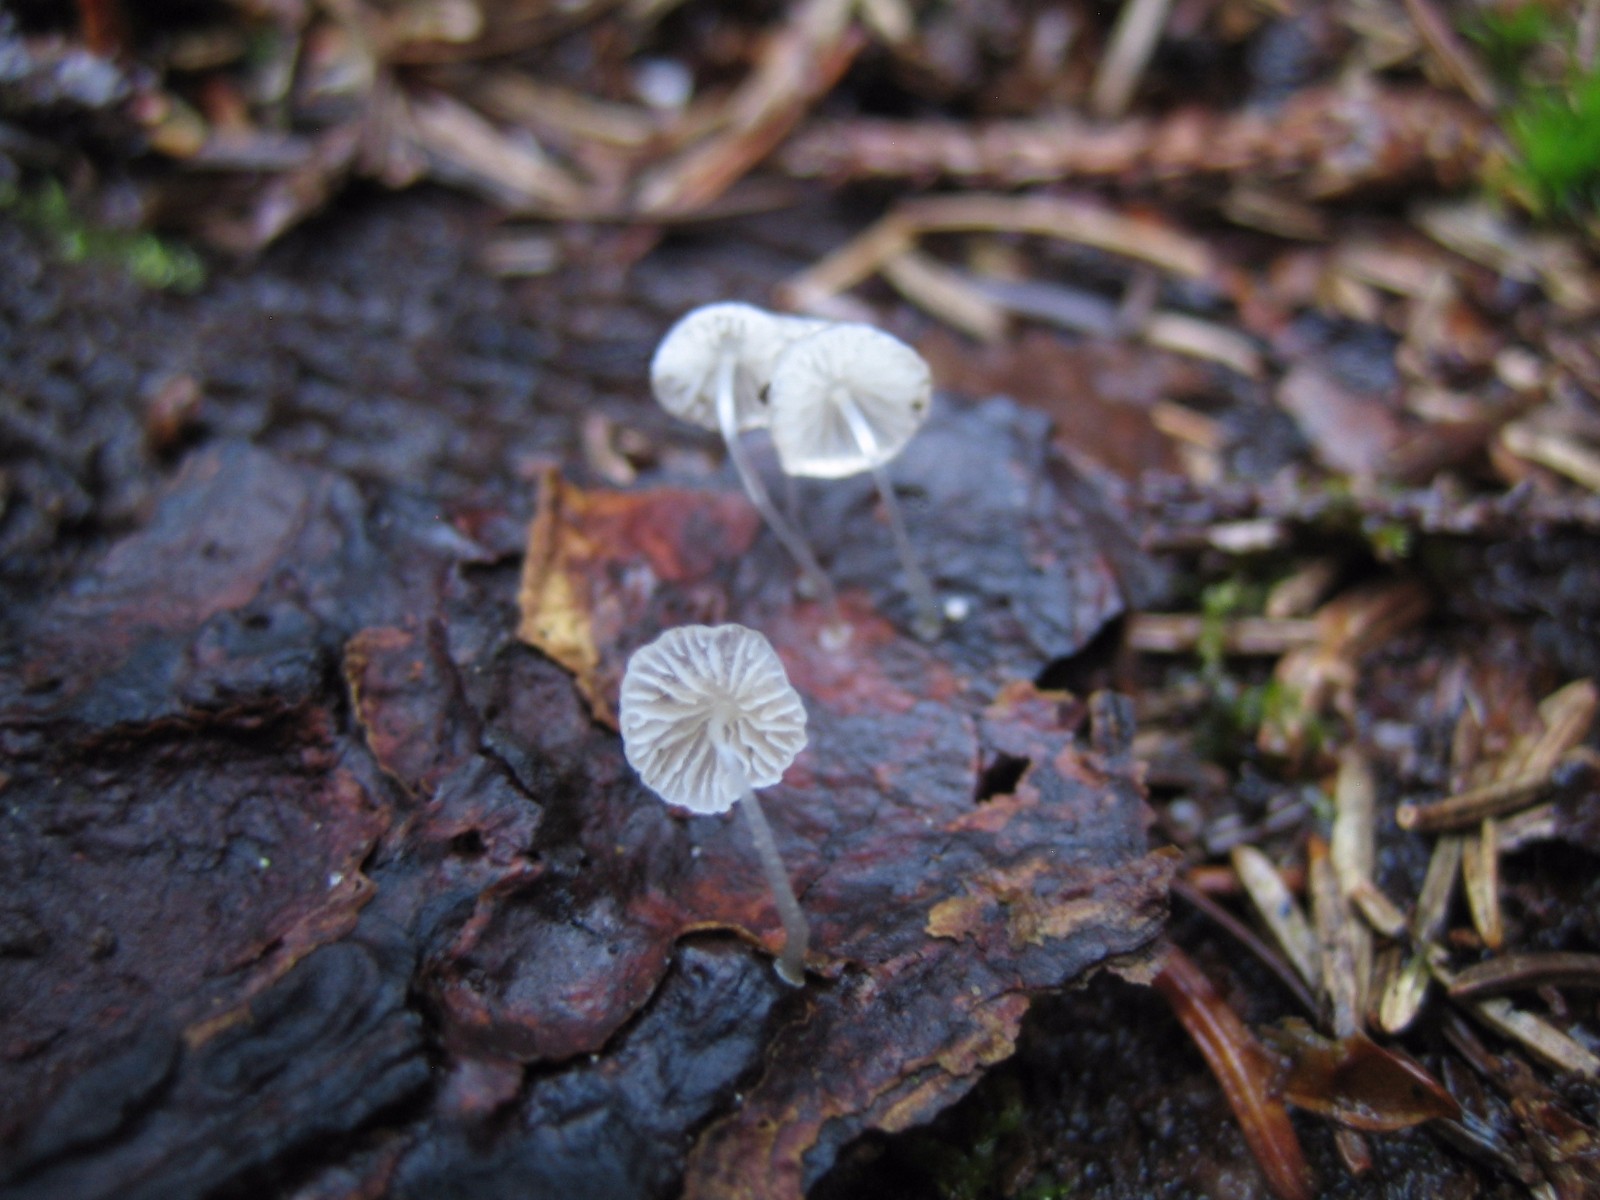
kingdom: Fungi
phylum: Basidiomycota
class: Agaricomycetes
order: Agaricales
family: Mycenaceae
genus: Mycena
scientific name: Mycena tenerrima
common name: pudret huesvamp
